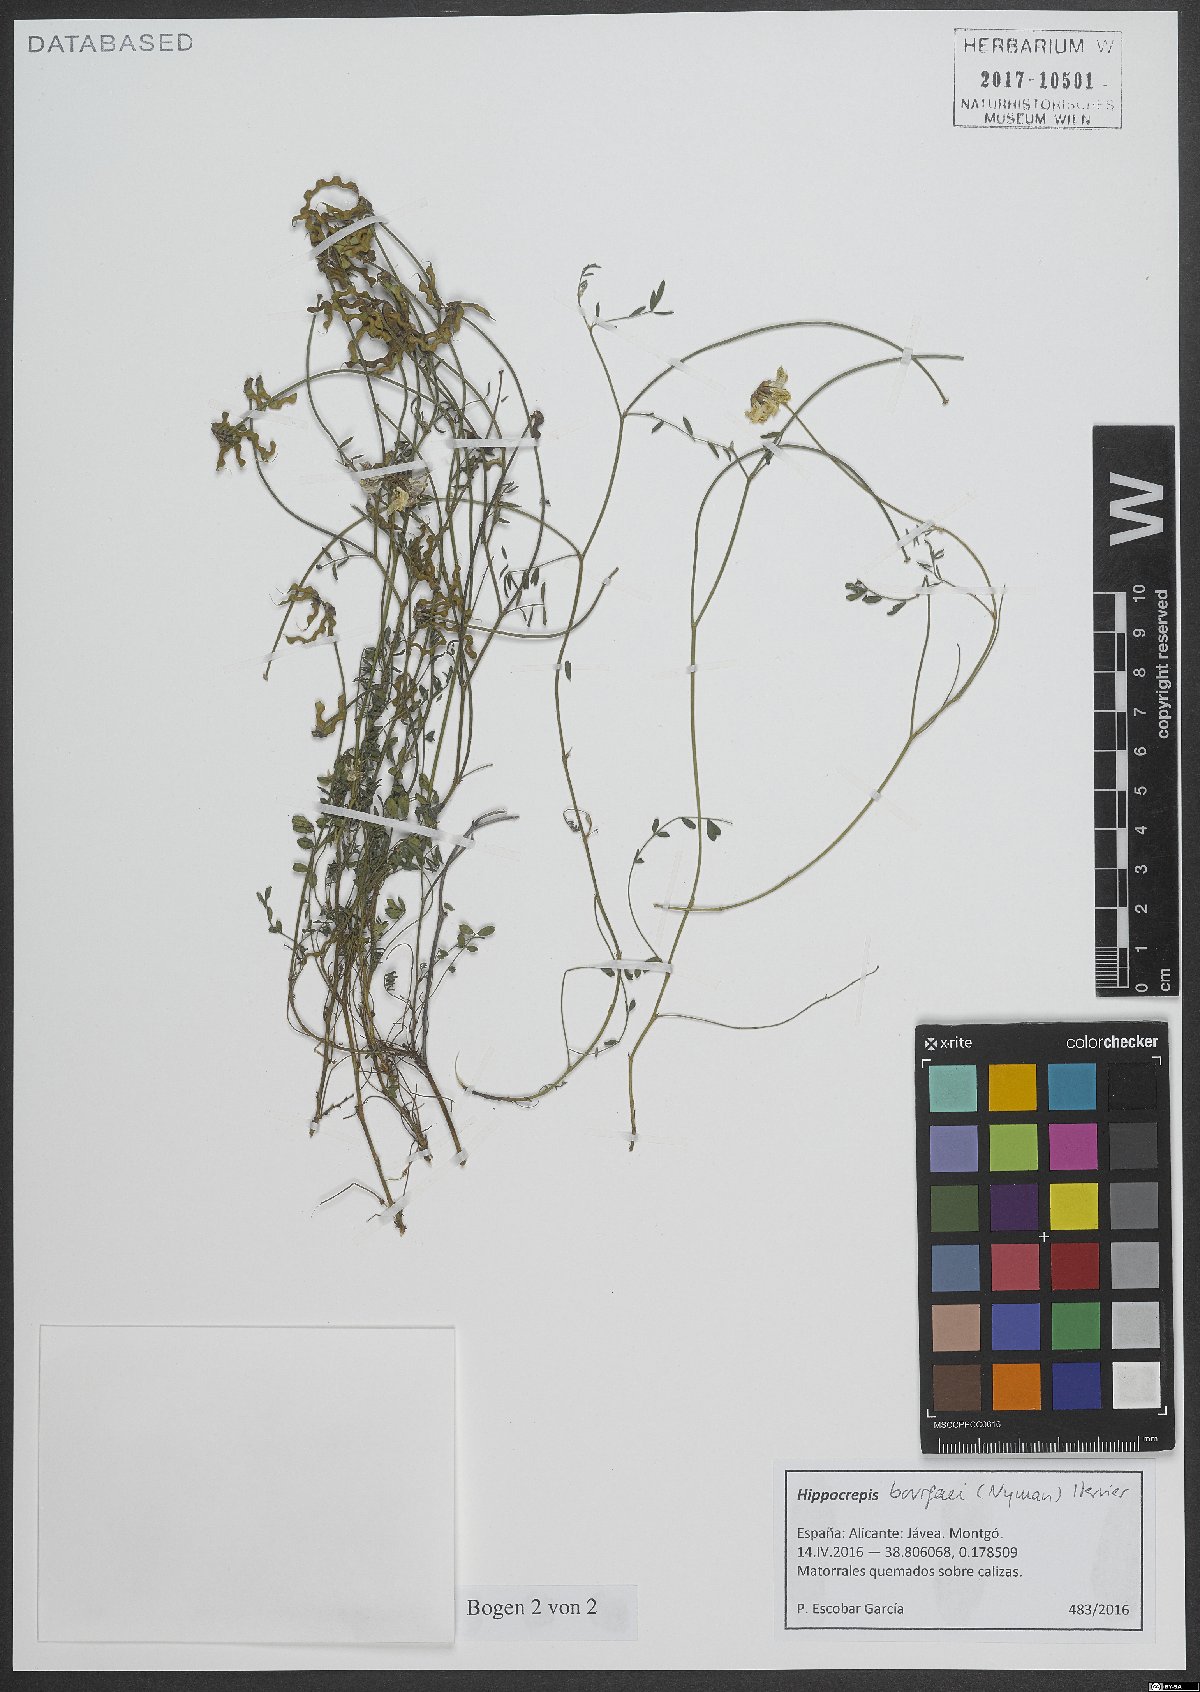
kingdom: Plantae
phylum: Tracheophyta
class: Magnoliopsida
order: Fabales
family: Fabaceae
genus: Hippocrepis
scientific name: Hippocrepis bourgaei
